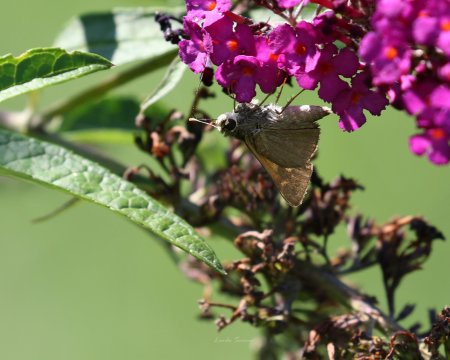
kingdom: Animalia
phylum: Arthropoda
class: Insecta
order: Lepidoptera
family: Hesperiidae
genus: Polites
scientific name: Polites themistocles
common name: Tawny-edged Skipper
